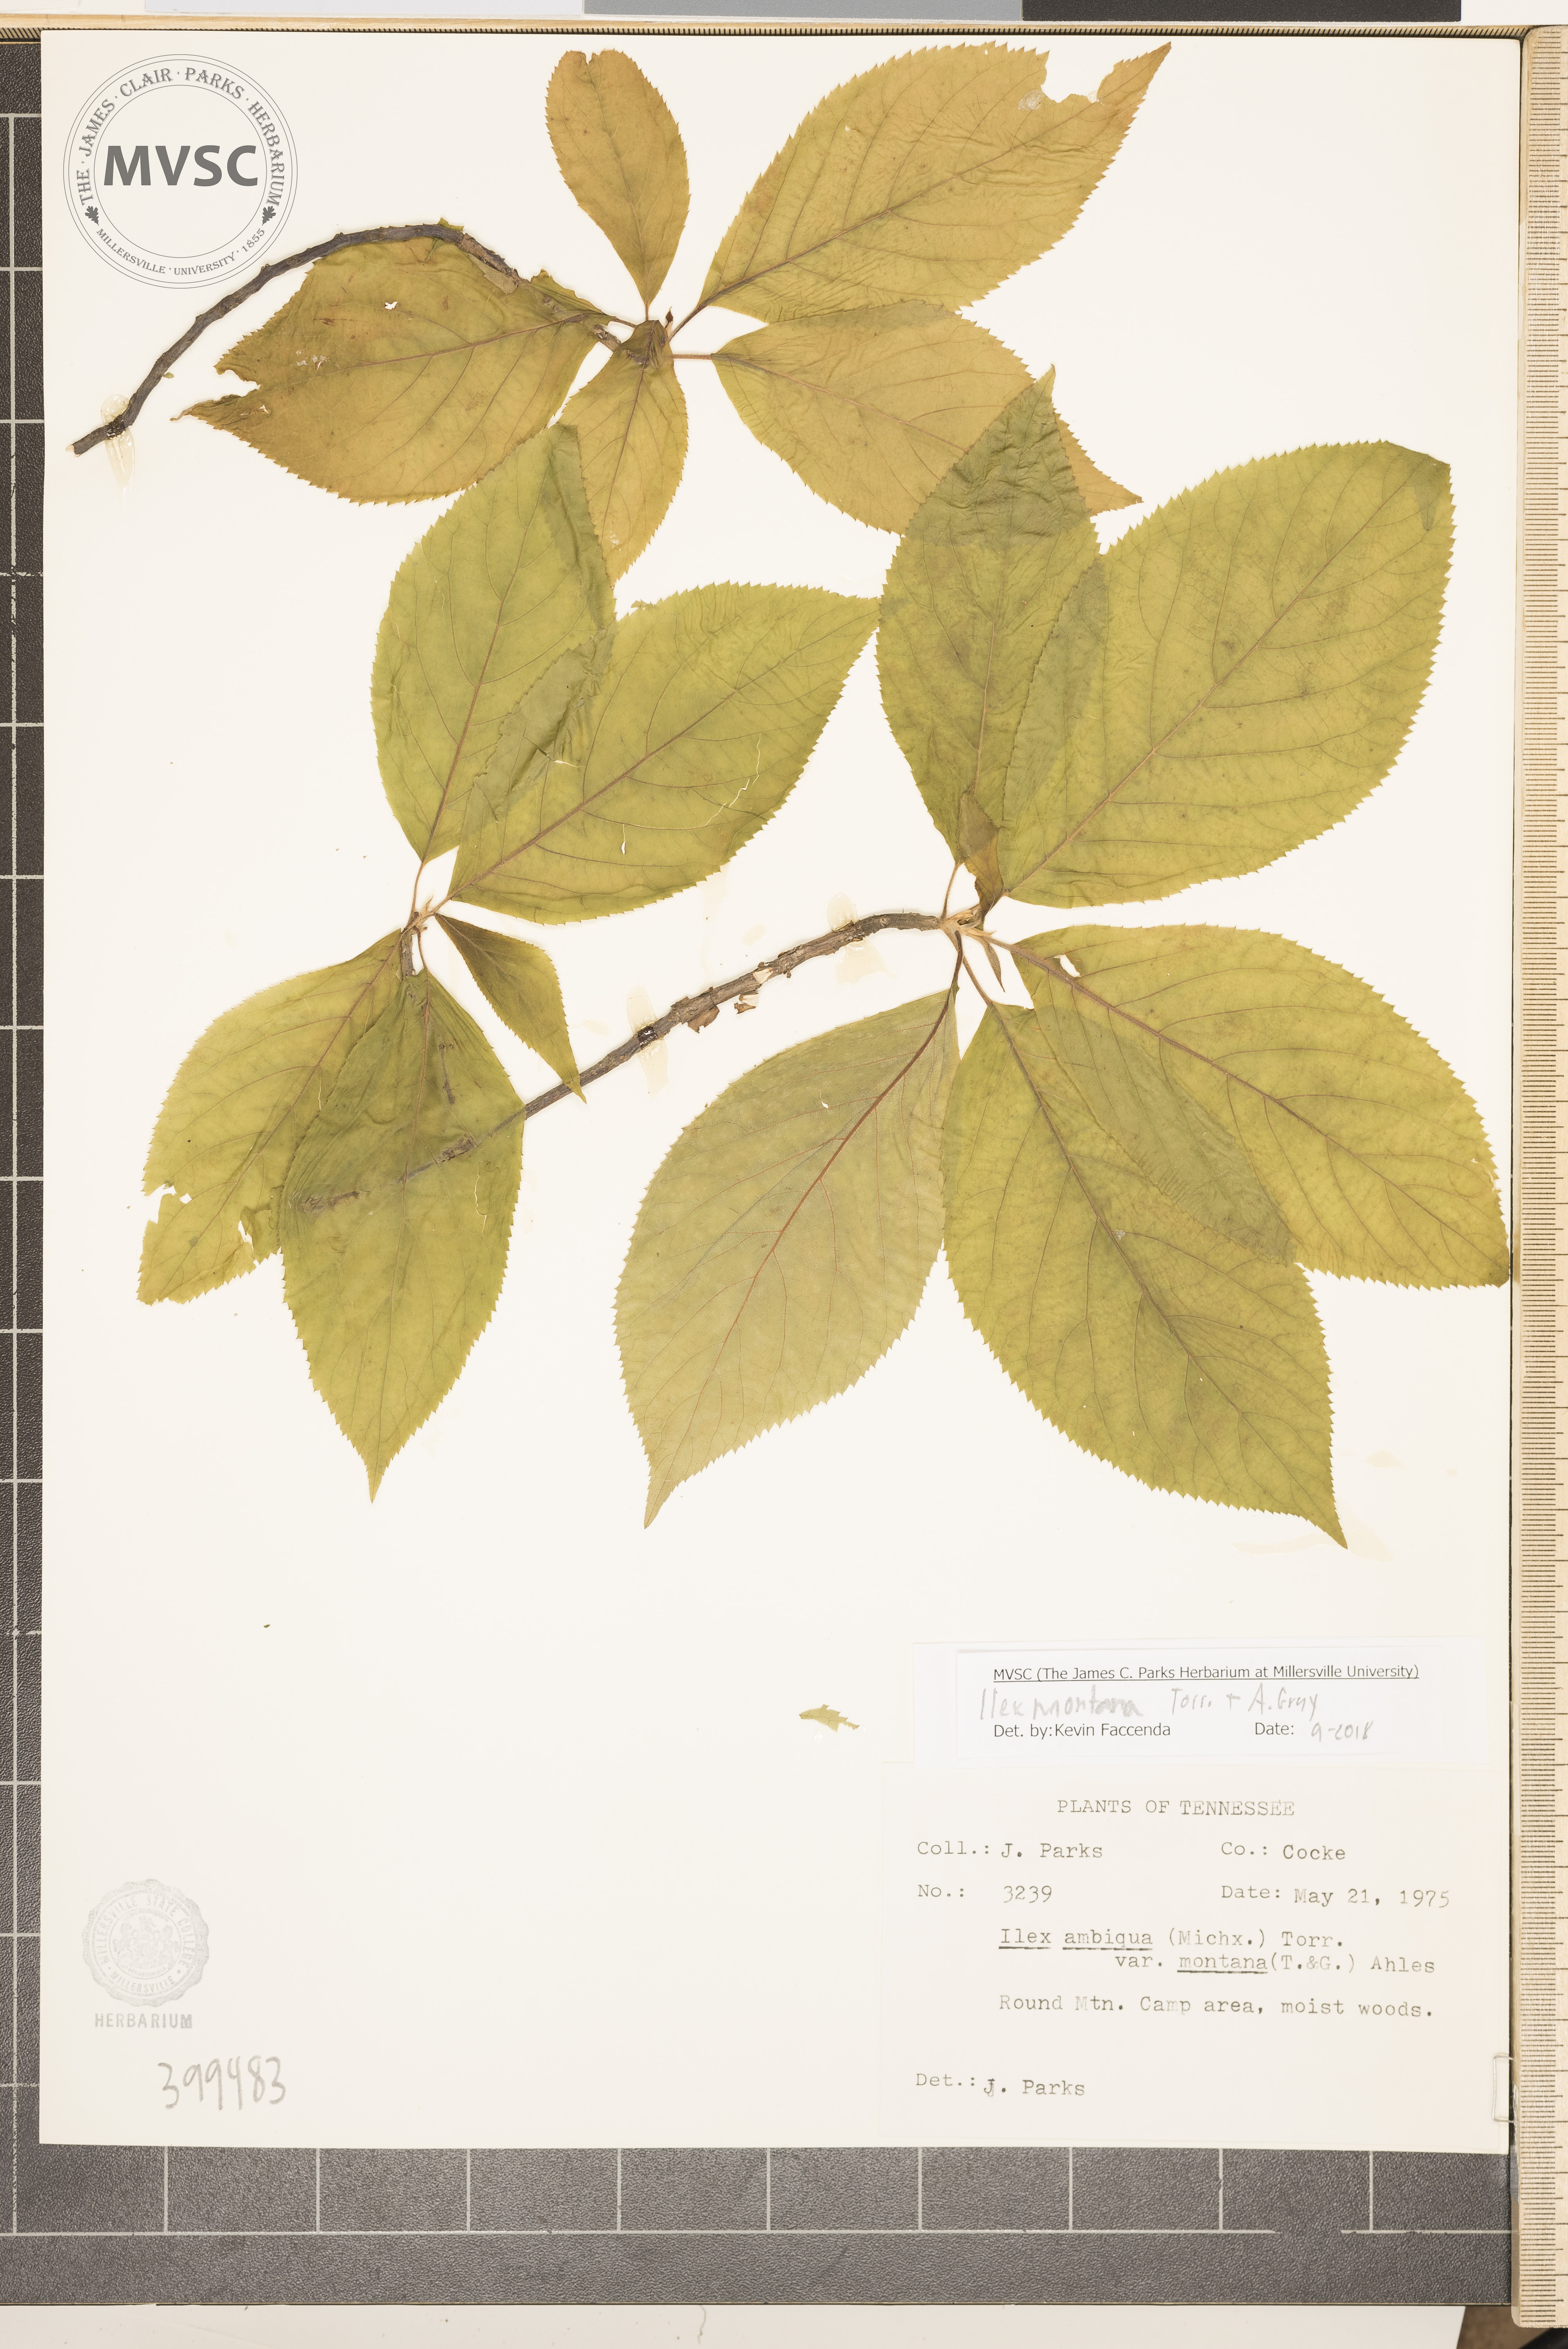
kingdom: Plantae
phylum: Tracheophyta
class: Magnoliopsida
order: Aquifoliales
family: Aquifoliaceae
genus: Ilex
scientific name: Ilex montana
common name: Carolina holly
